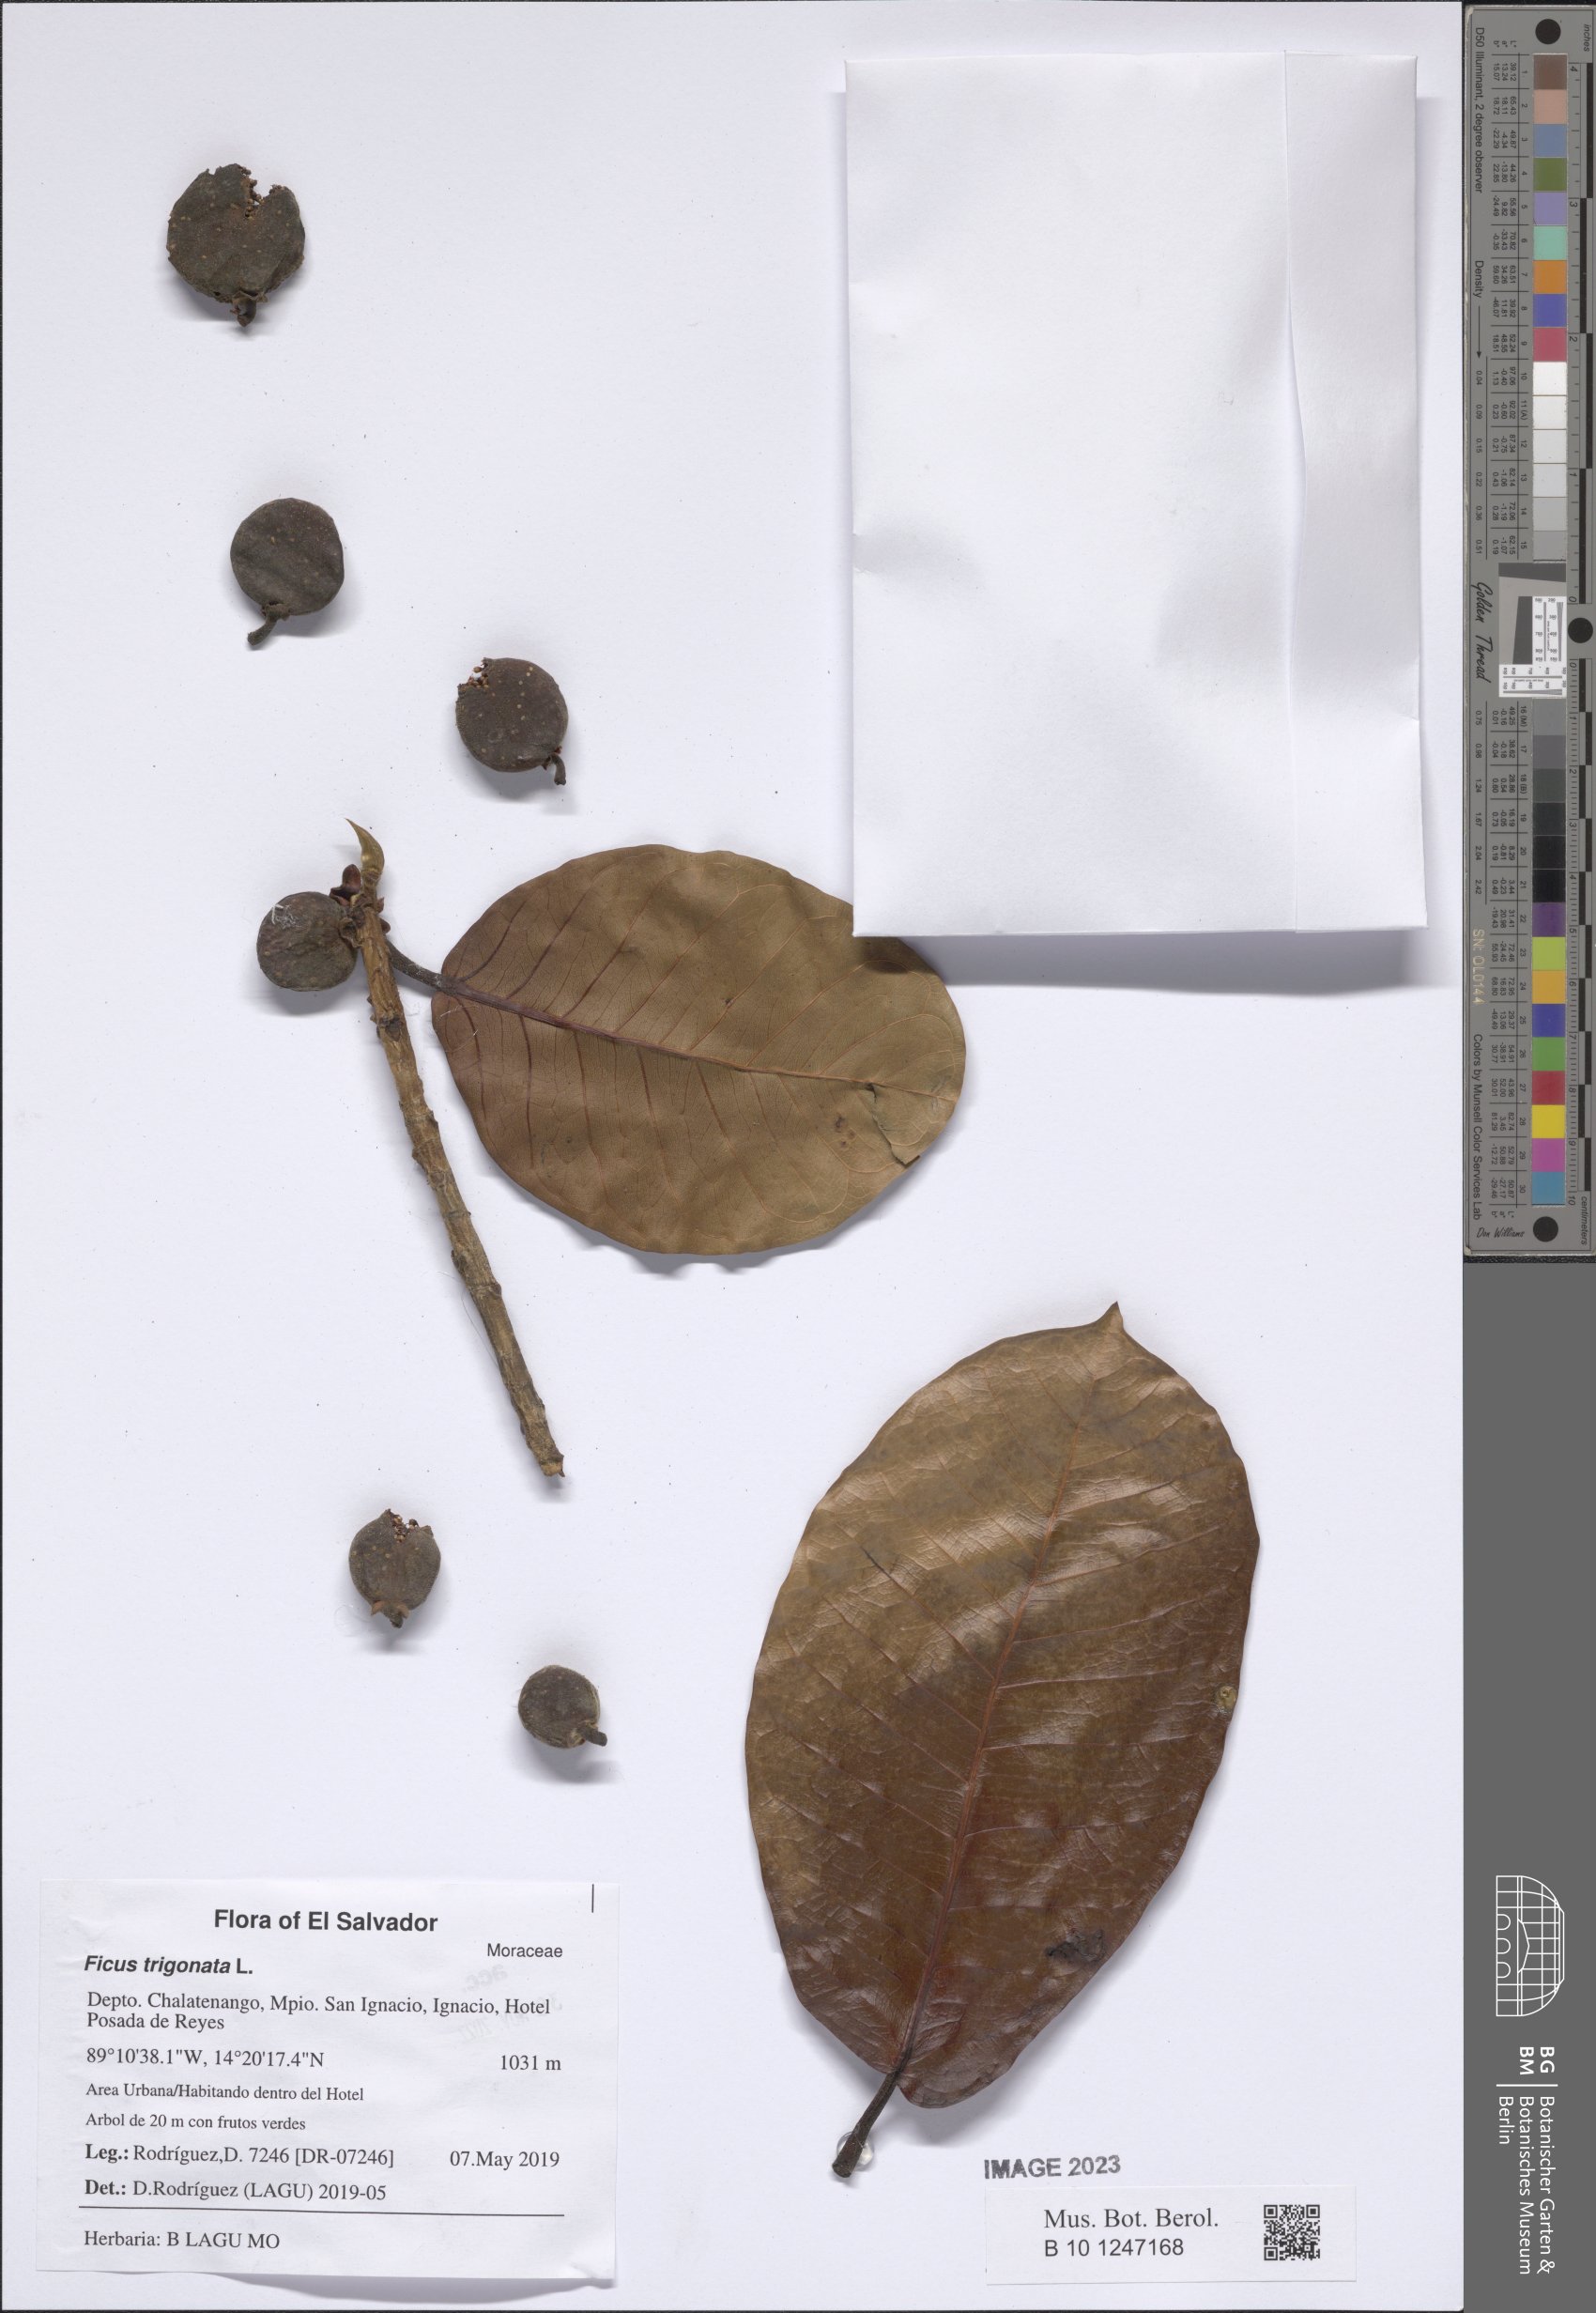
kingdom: Plantae
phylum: Tracheophyta
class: Magnoliopsida
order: Rosales
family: Moraceae
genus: Ficus
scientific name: Ficus trigonata
